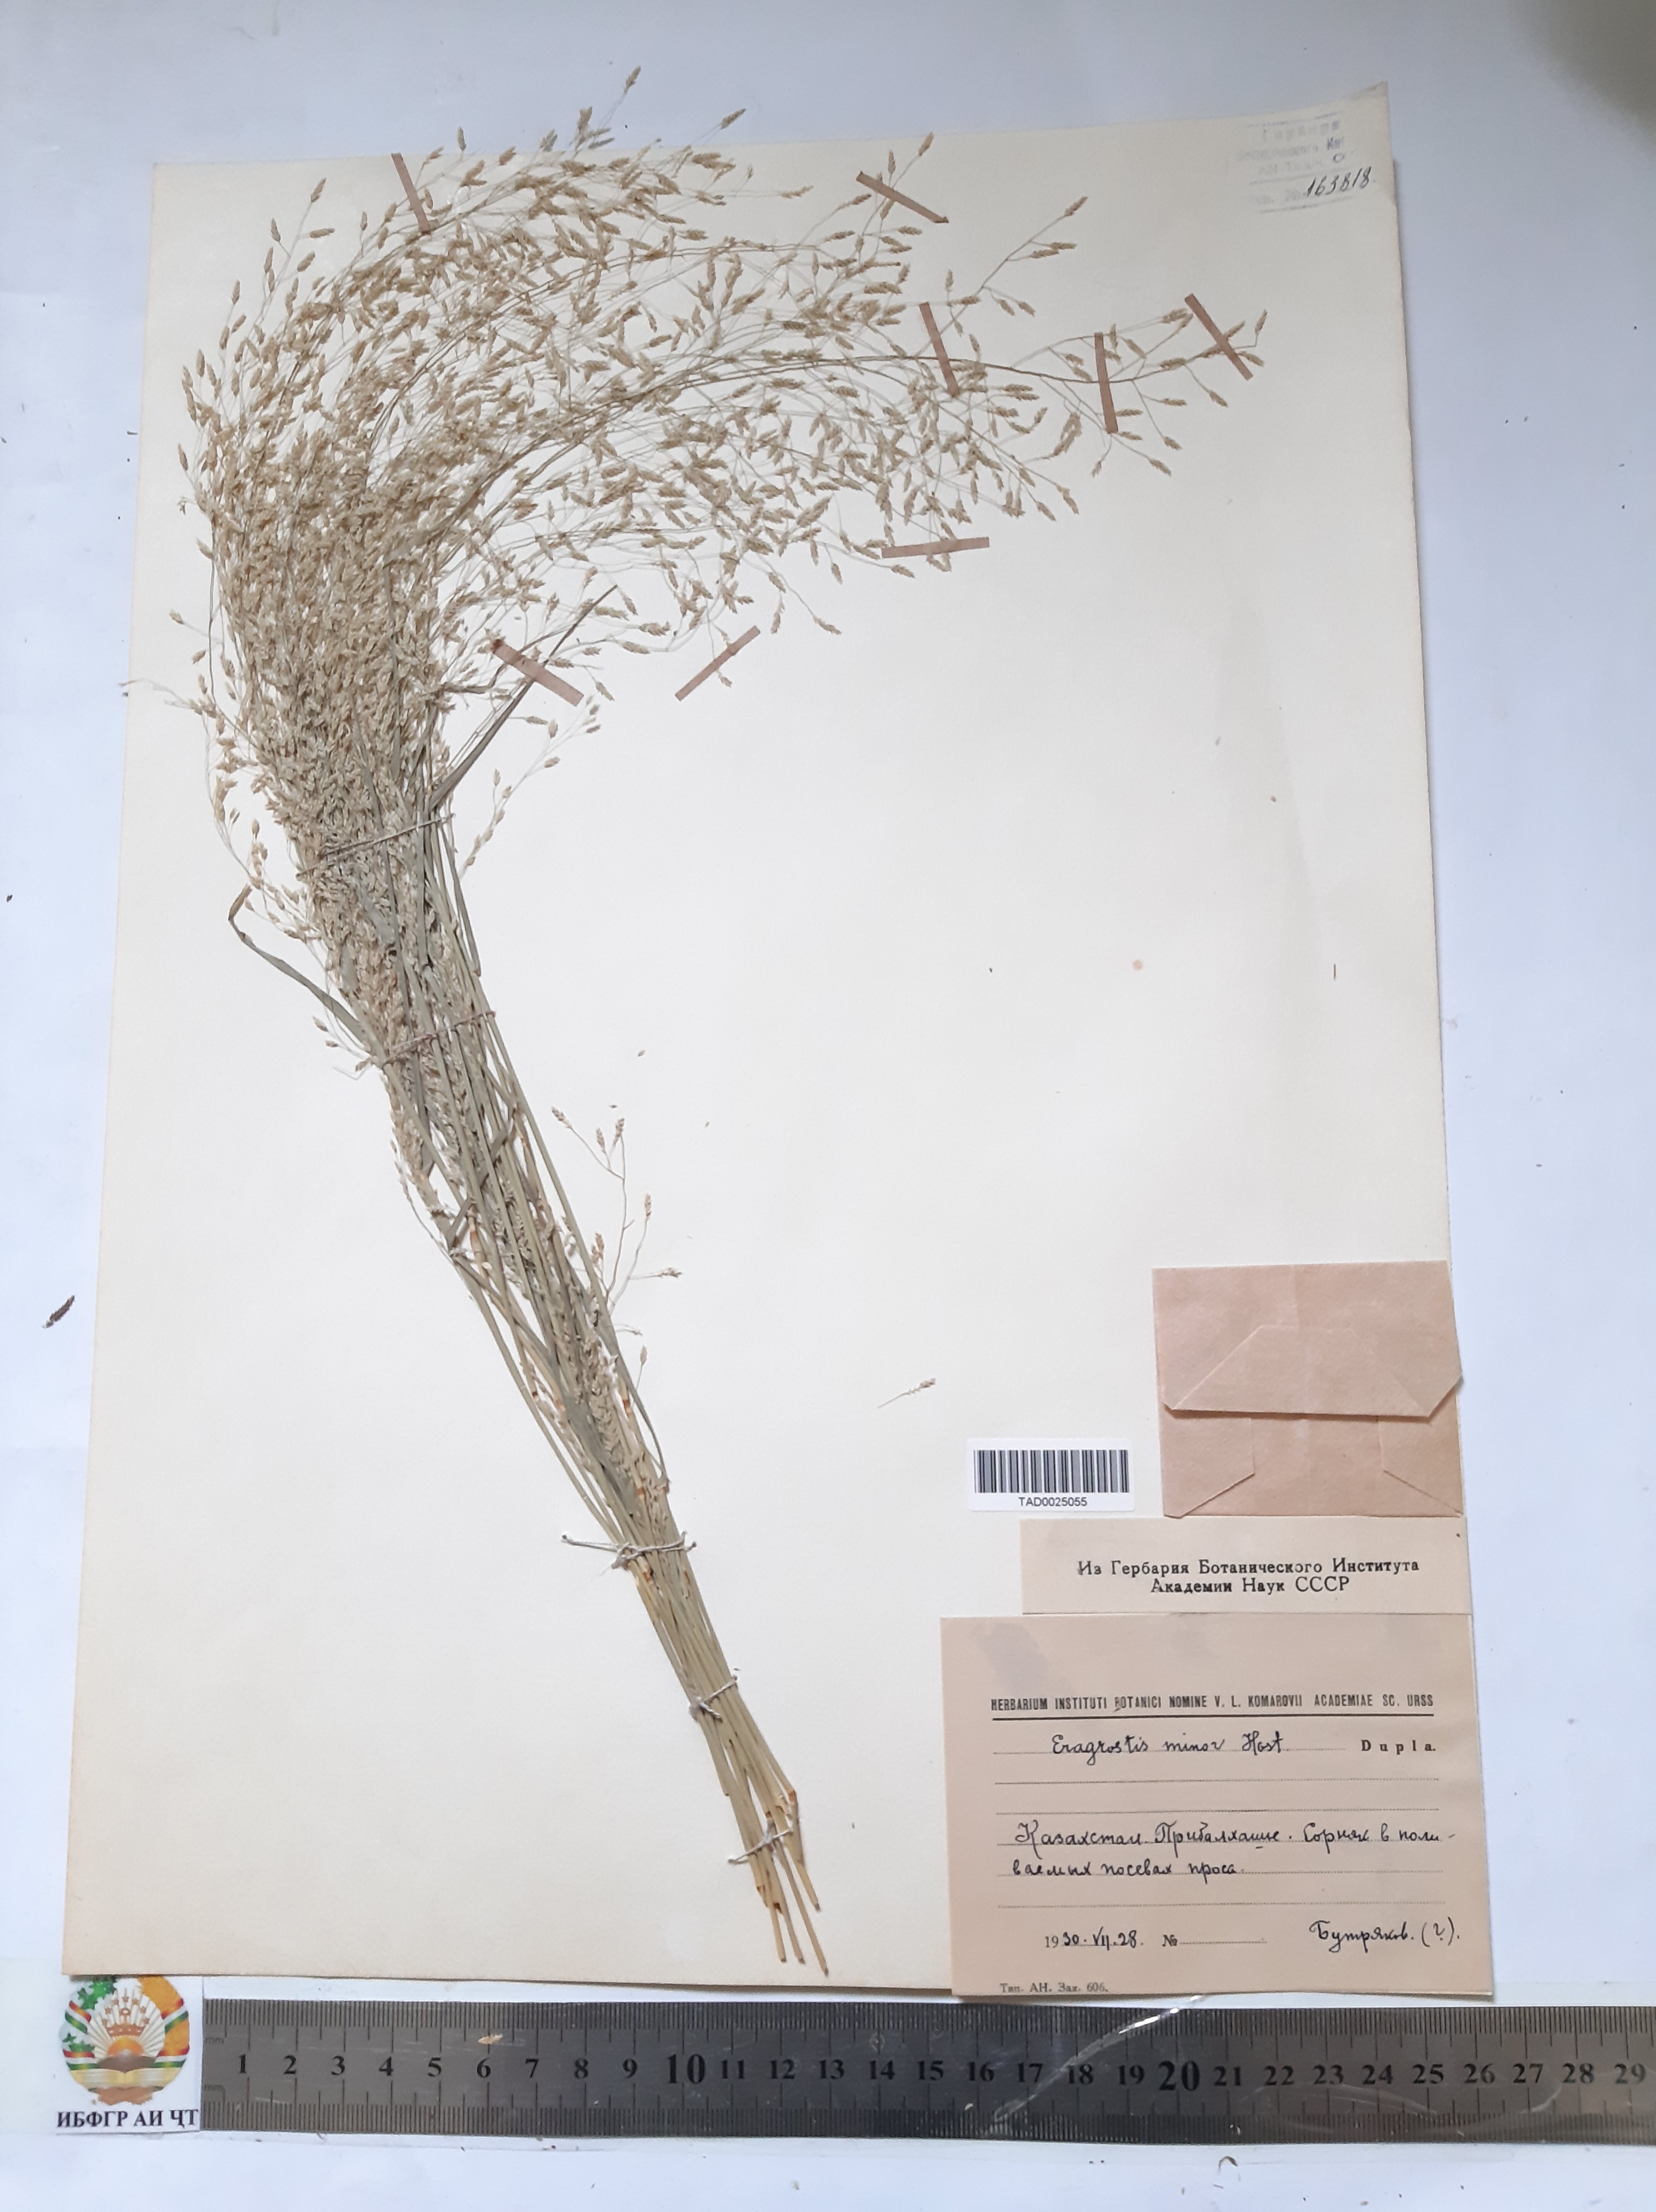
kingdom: Plantae
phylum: Tracheophyta
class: Liliopsida
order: Poales
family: Poaceae
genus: Eragrostis
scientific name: Eragrostis minor
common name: Small love-grass
